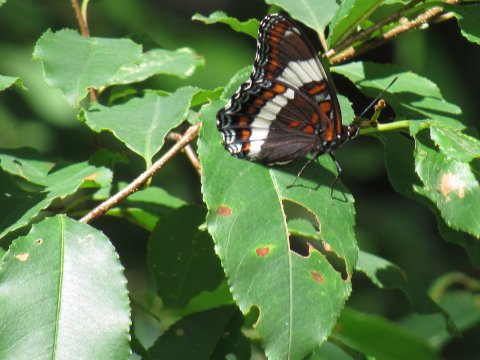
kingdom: Animalia
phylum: Arthropoda
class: Insecta
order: Lepidoptera
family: Nymphalidae
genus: Limenitis
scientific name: Limenitis arthemis
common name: Red-spotted Admiral
